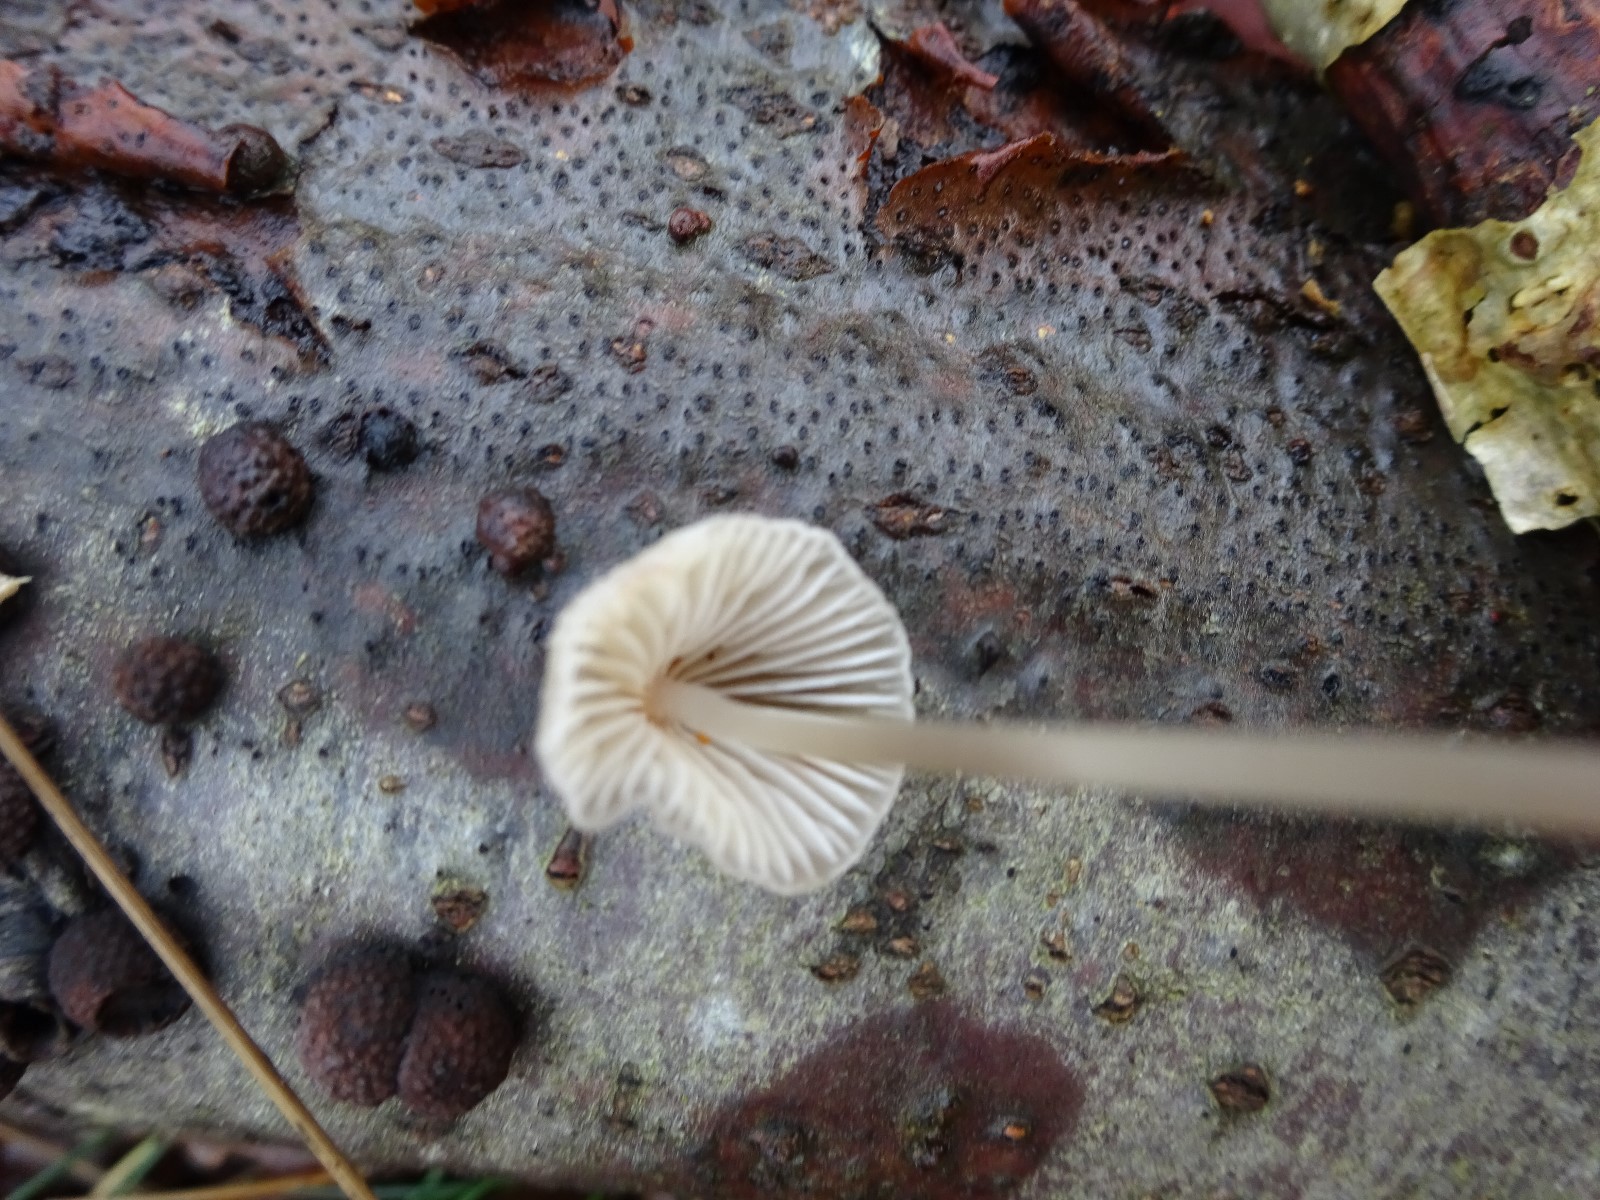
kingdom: Fungi
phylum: Basidiomycota
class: Agaricomycetes
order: Agaricales
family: Mycenaceae
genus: Mycena
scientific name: Mycena vitilis
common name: blankstokket huesvamp
